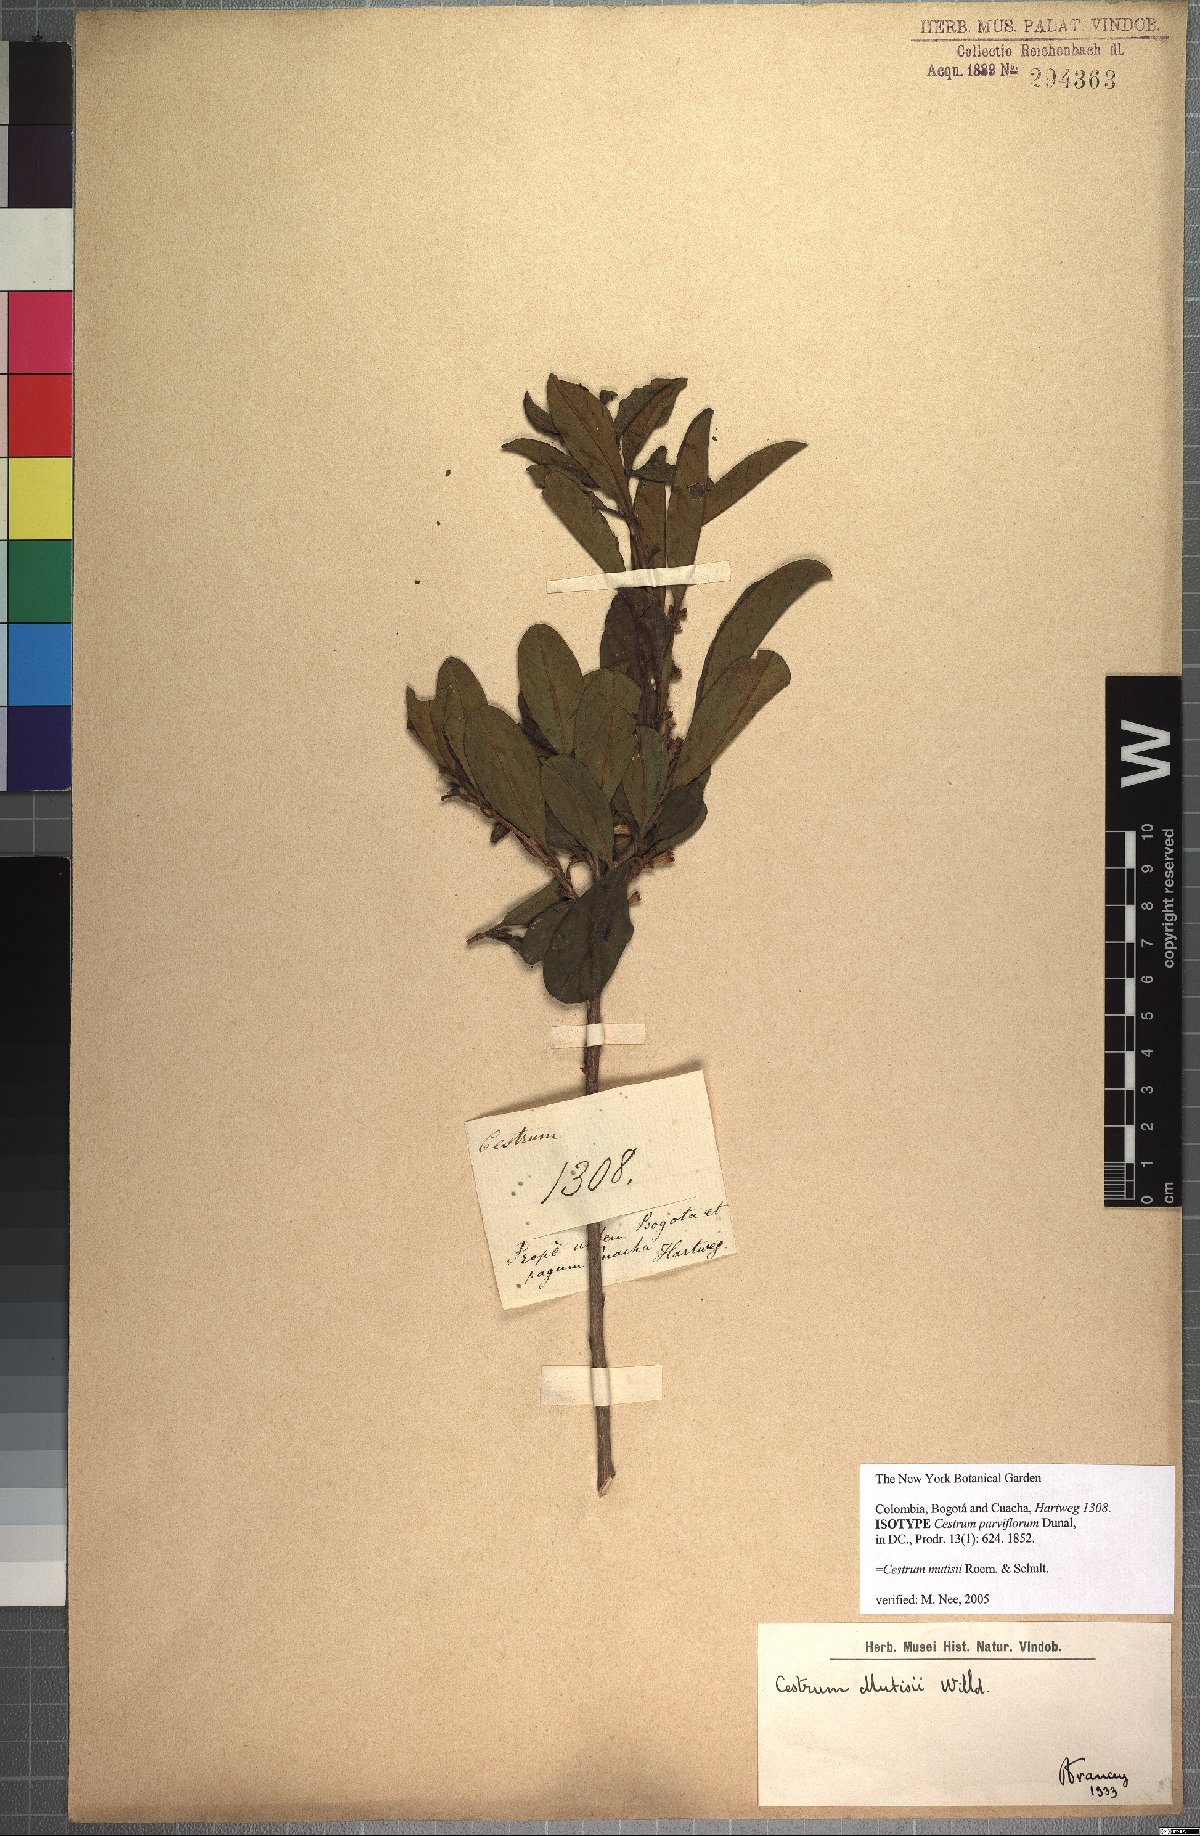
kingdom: Plantae
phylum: Tracheophyta
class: Magnoliopsida
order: Solanales
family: Solanaceae
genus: Cestrum
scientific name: Cestrum mutisii
